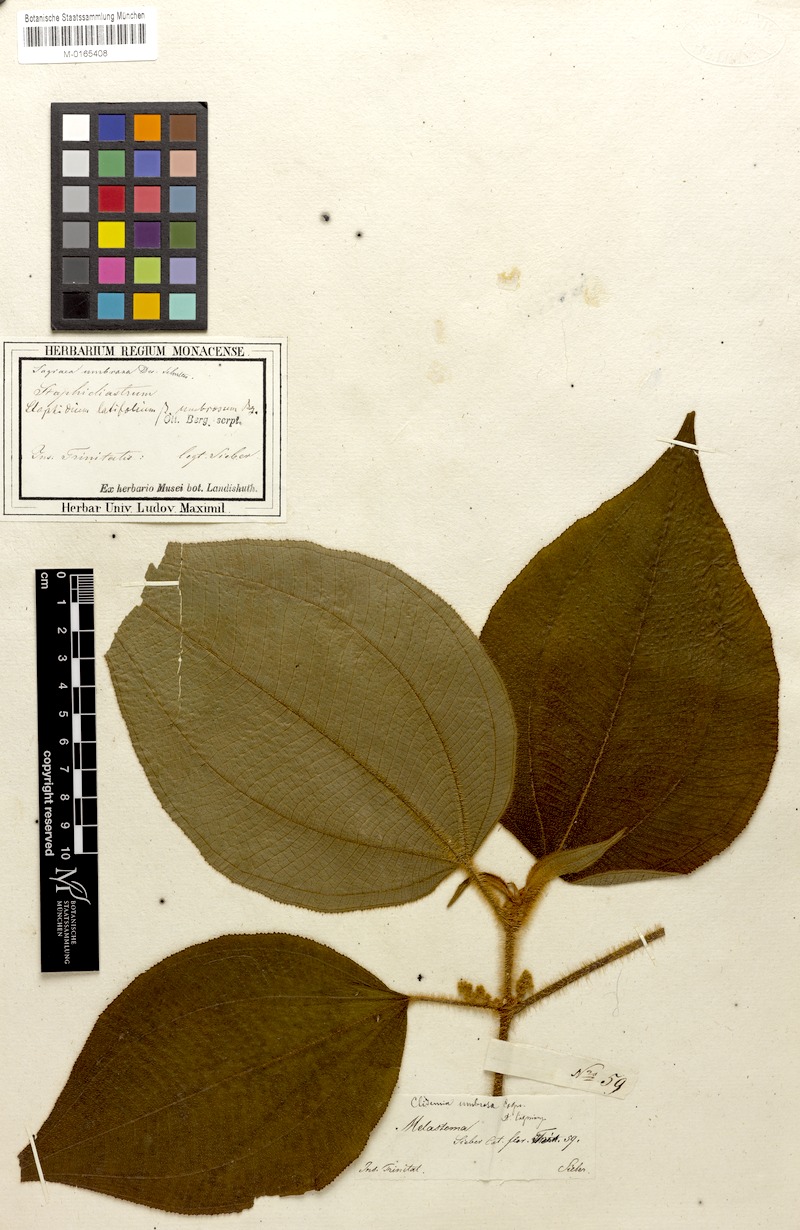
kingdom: Plantae
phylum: Tracheophyta
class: Magnoliopsida
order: Myrtales
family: Melastomataceae
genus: Miconia
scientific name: Miconia sciaphila
